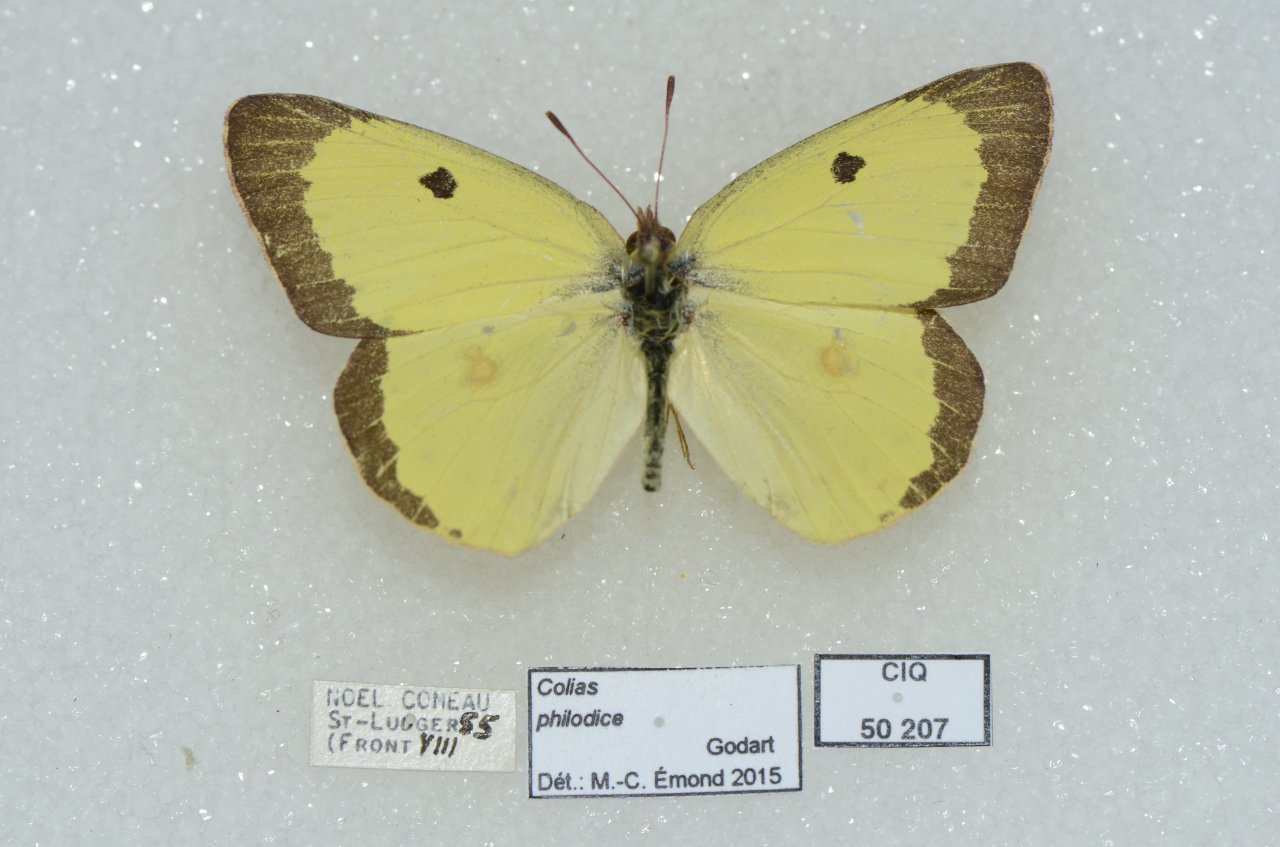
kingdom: Animalia
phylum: Arthropoda
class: Insecta
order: Lepidoptera
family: Pieridae
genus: Colias
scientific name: Colias philodice
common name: Clouded Sulphur
